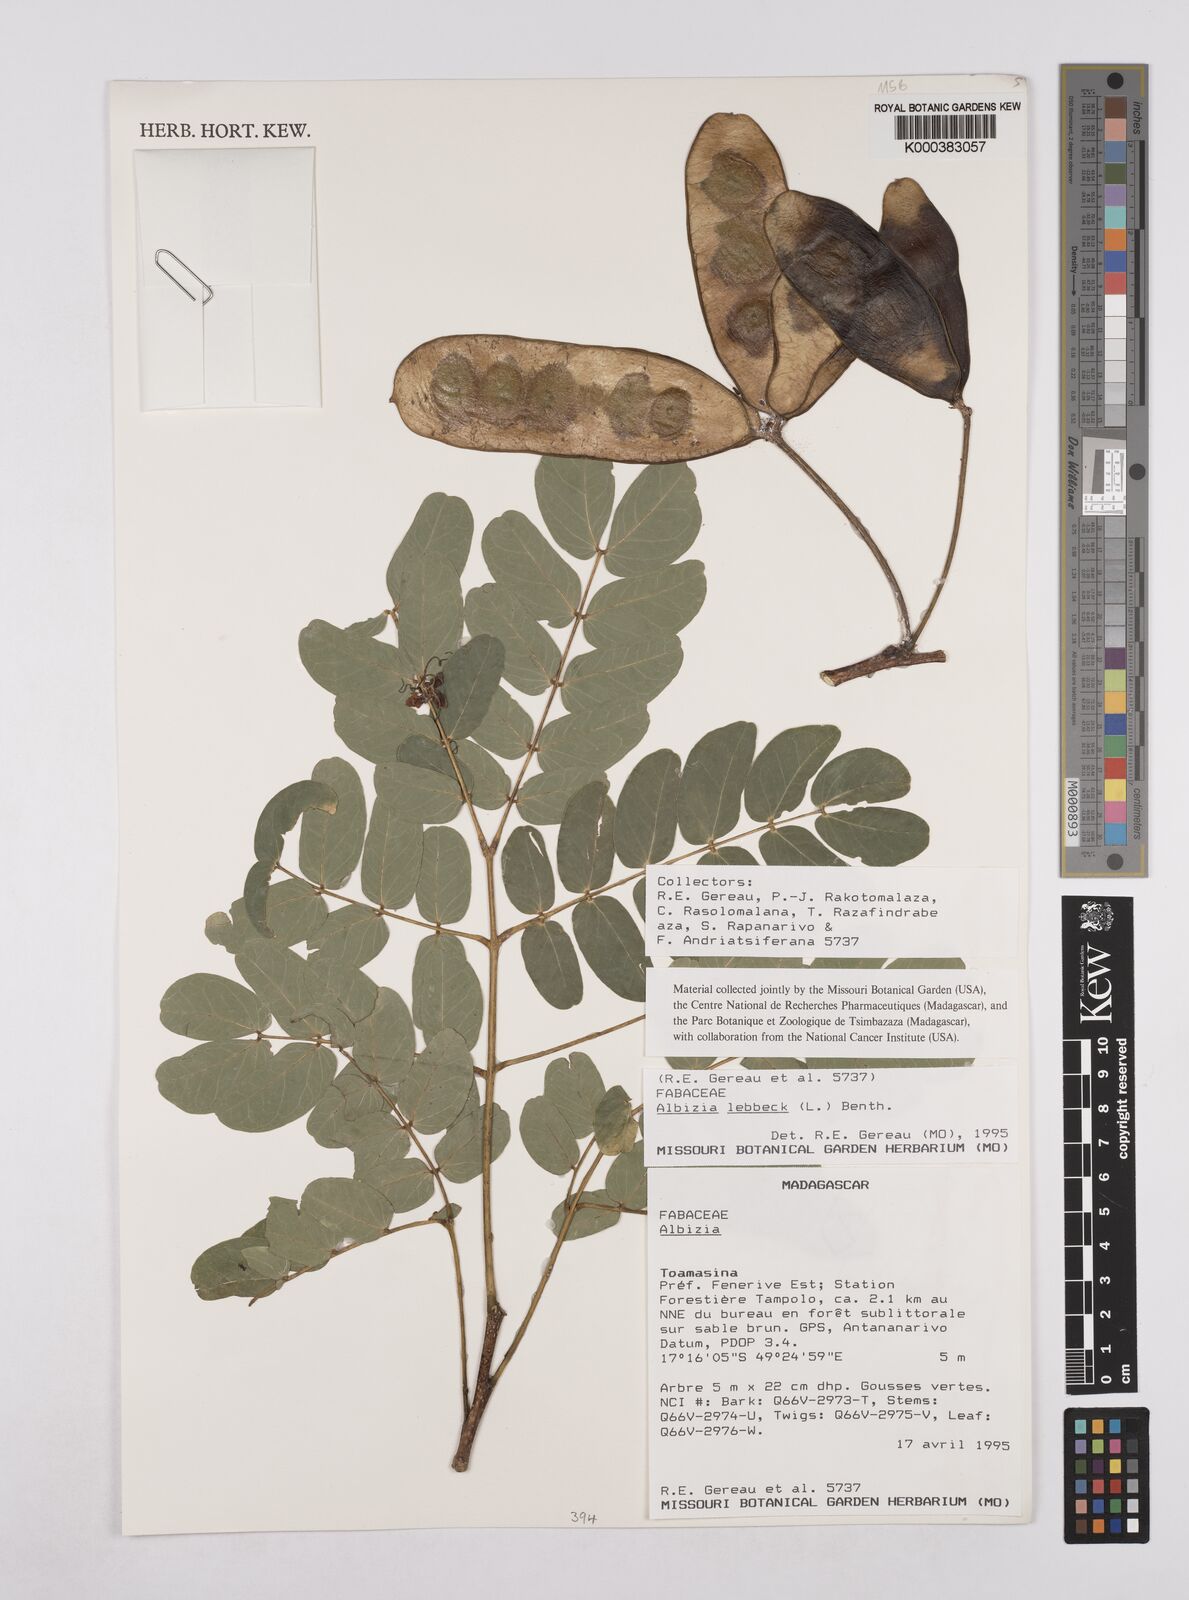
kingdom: Plantae
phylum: Tracheophyta
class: Magnoliopsida
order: Fabales
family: Fabaceae
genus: Albizia
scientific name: Albizia lebbeck
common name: Woman's tongue
